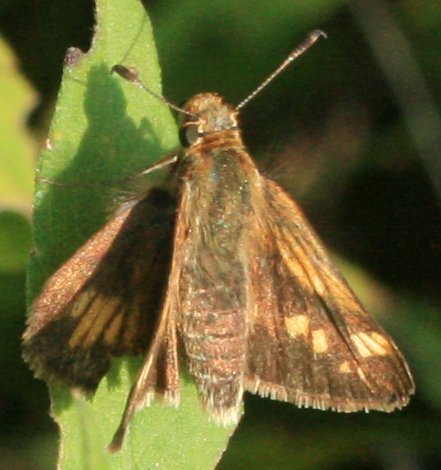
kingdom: Animalia
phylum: Arthropoda
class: Insecta
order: Lepidoptera
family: Hesperiidae
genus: Polites
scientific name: Polites coras
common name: Peck's Skipper
